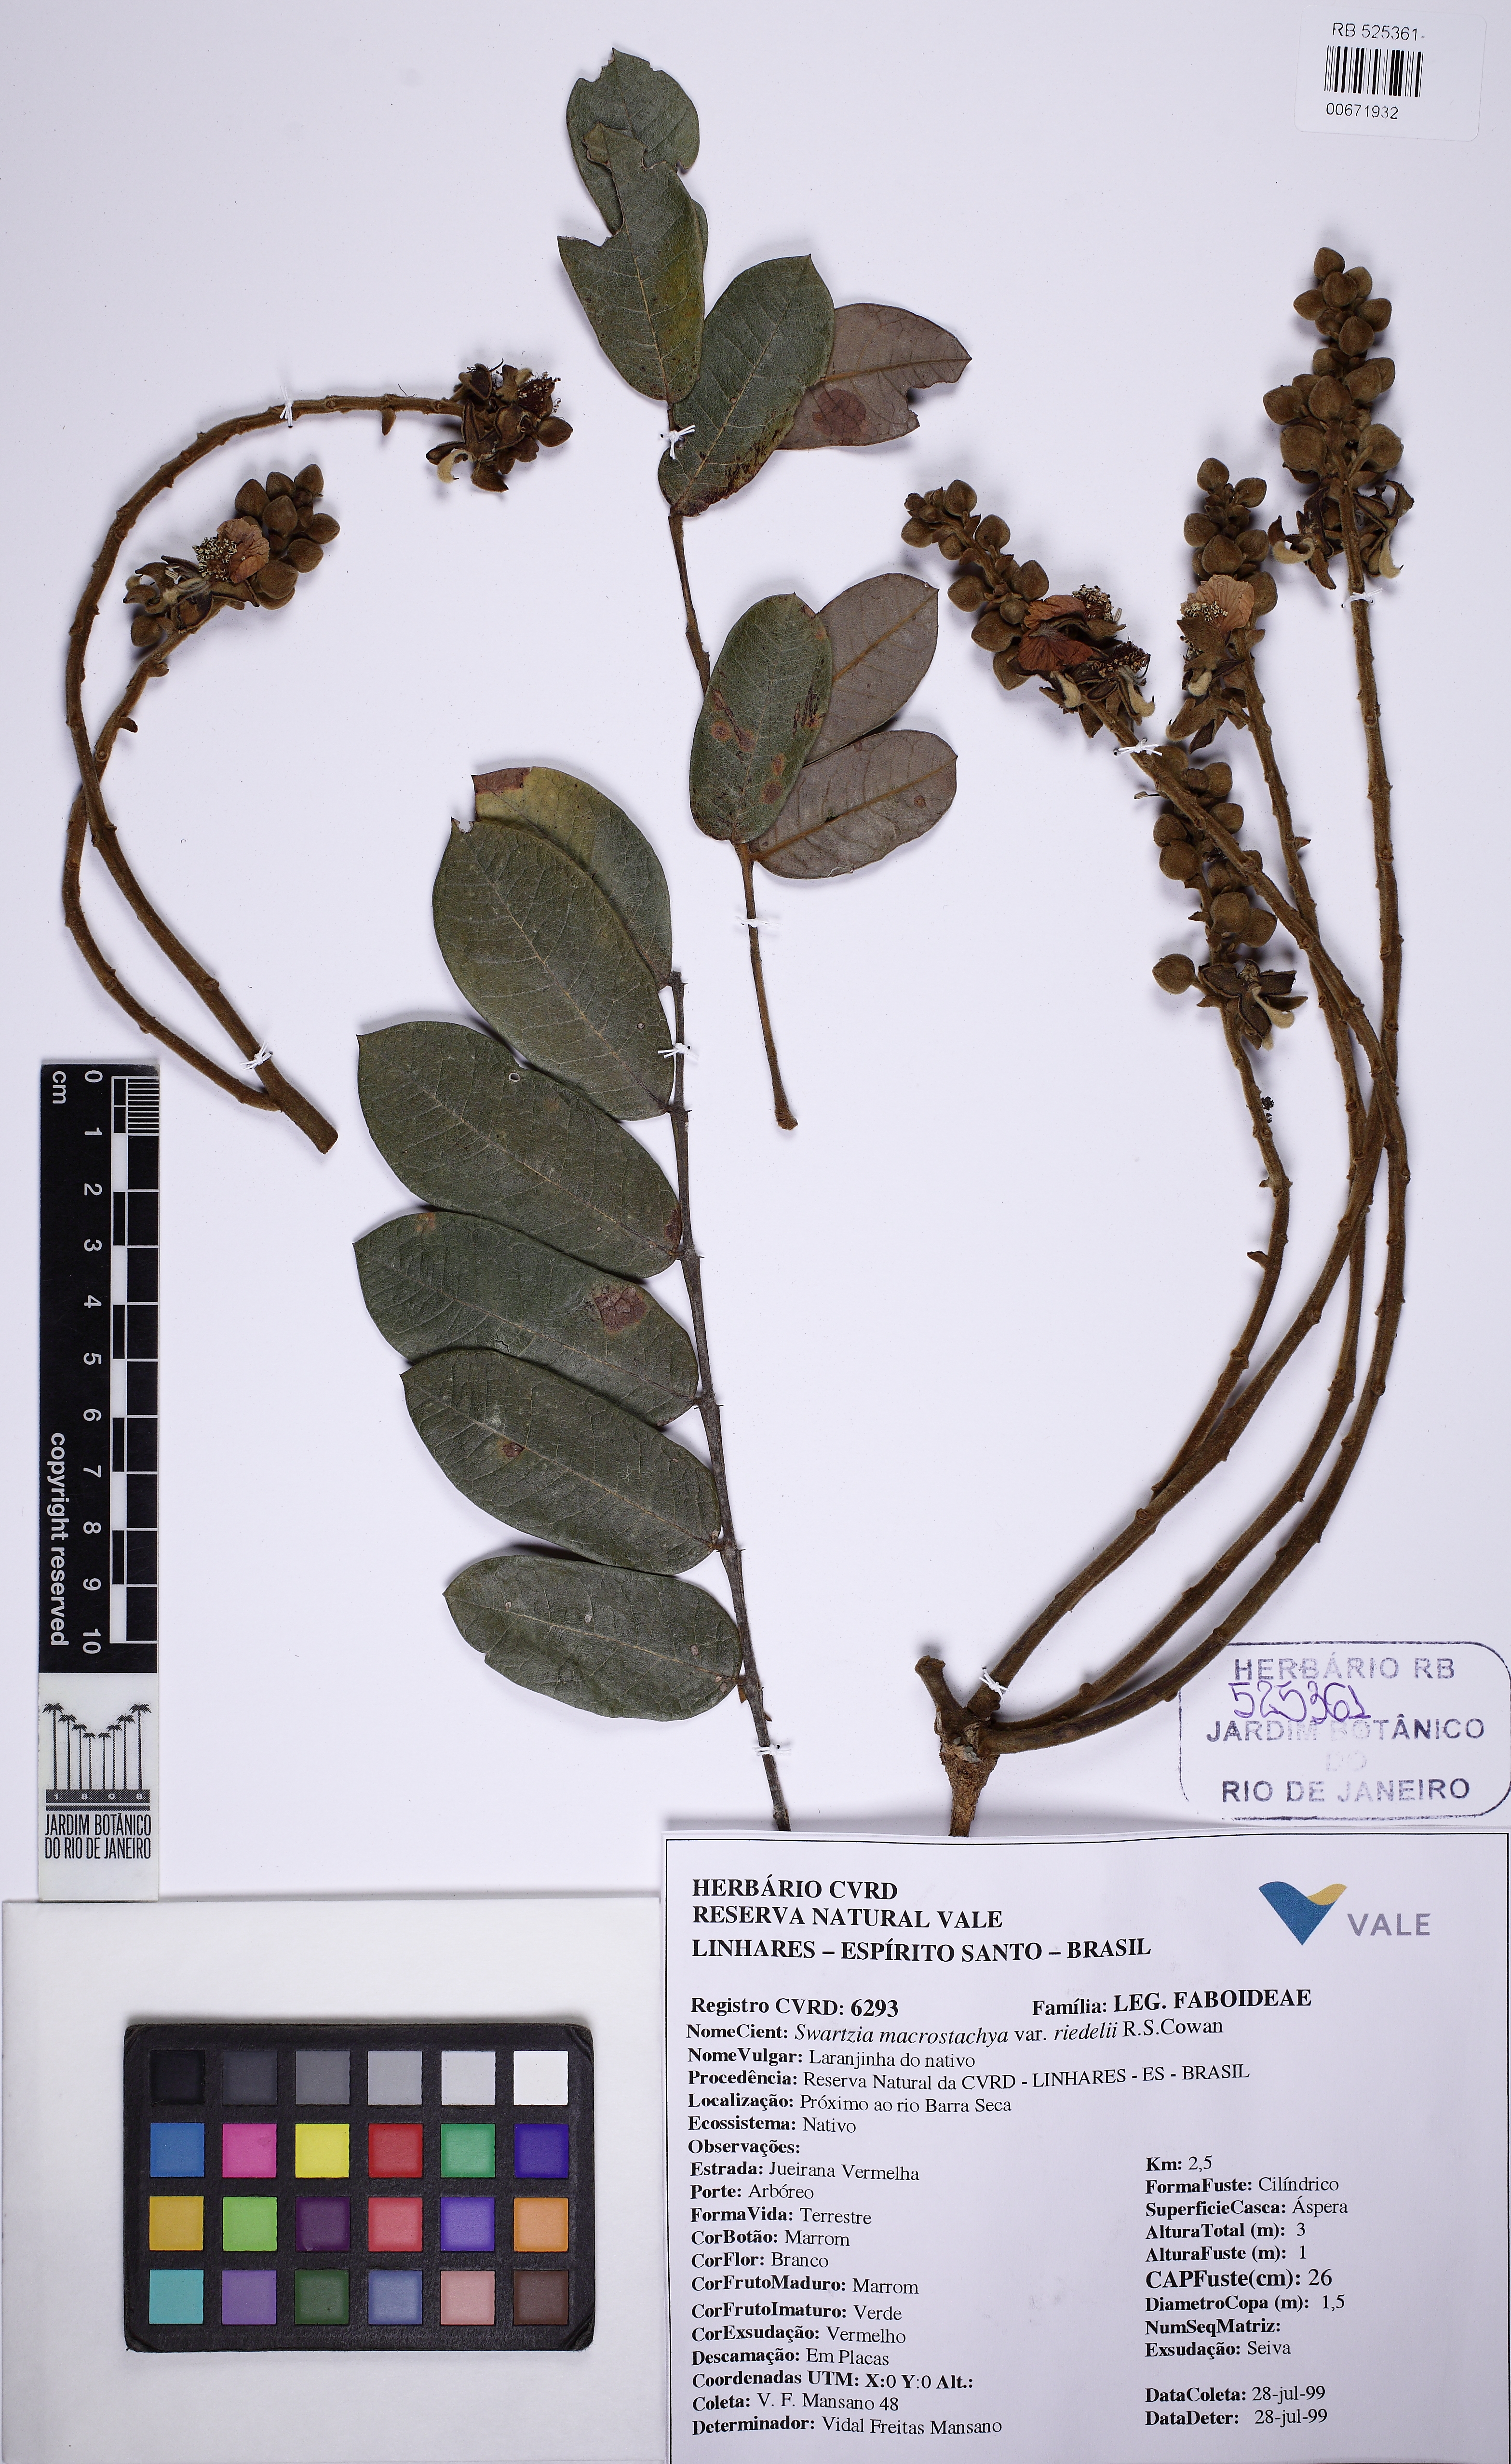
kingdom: Plantae
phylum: Tracheophyta
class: Magnoliopsida
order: Fabales
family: Fabaceae
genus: Swartzia
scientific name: Swartzia macrostachya
